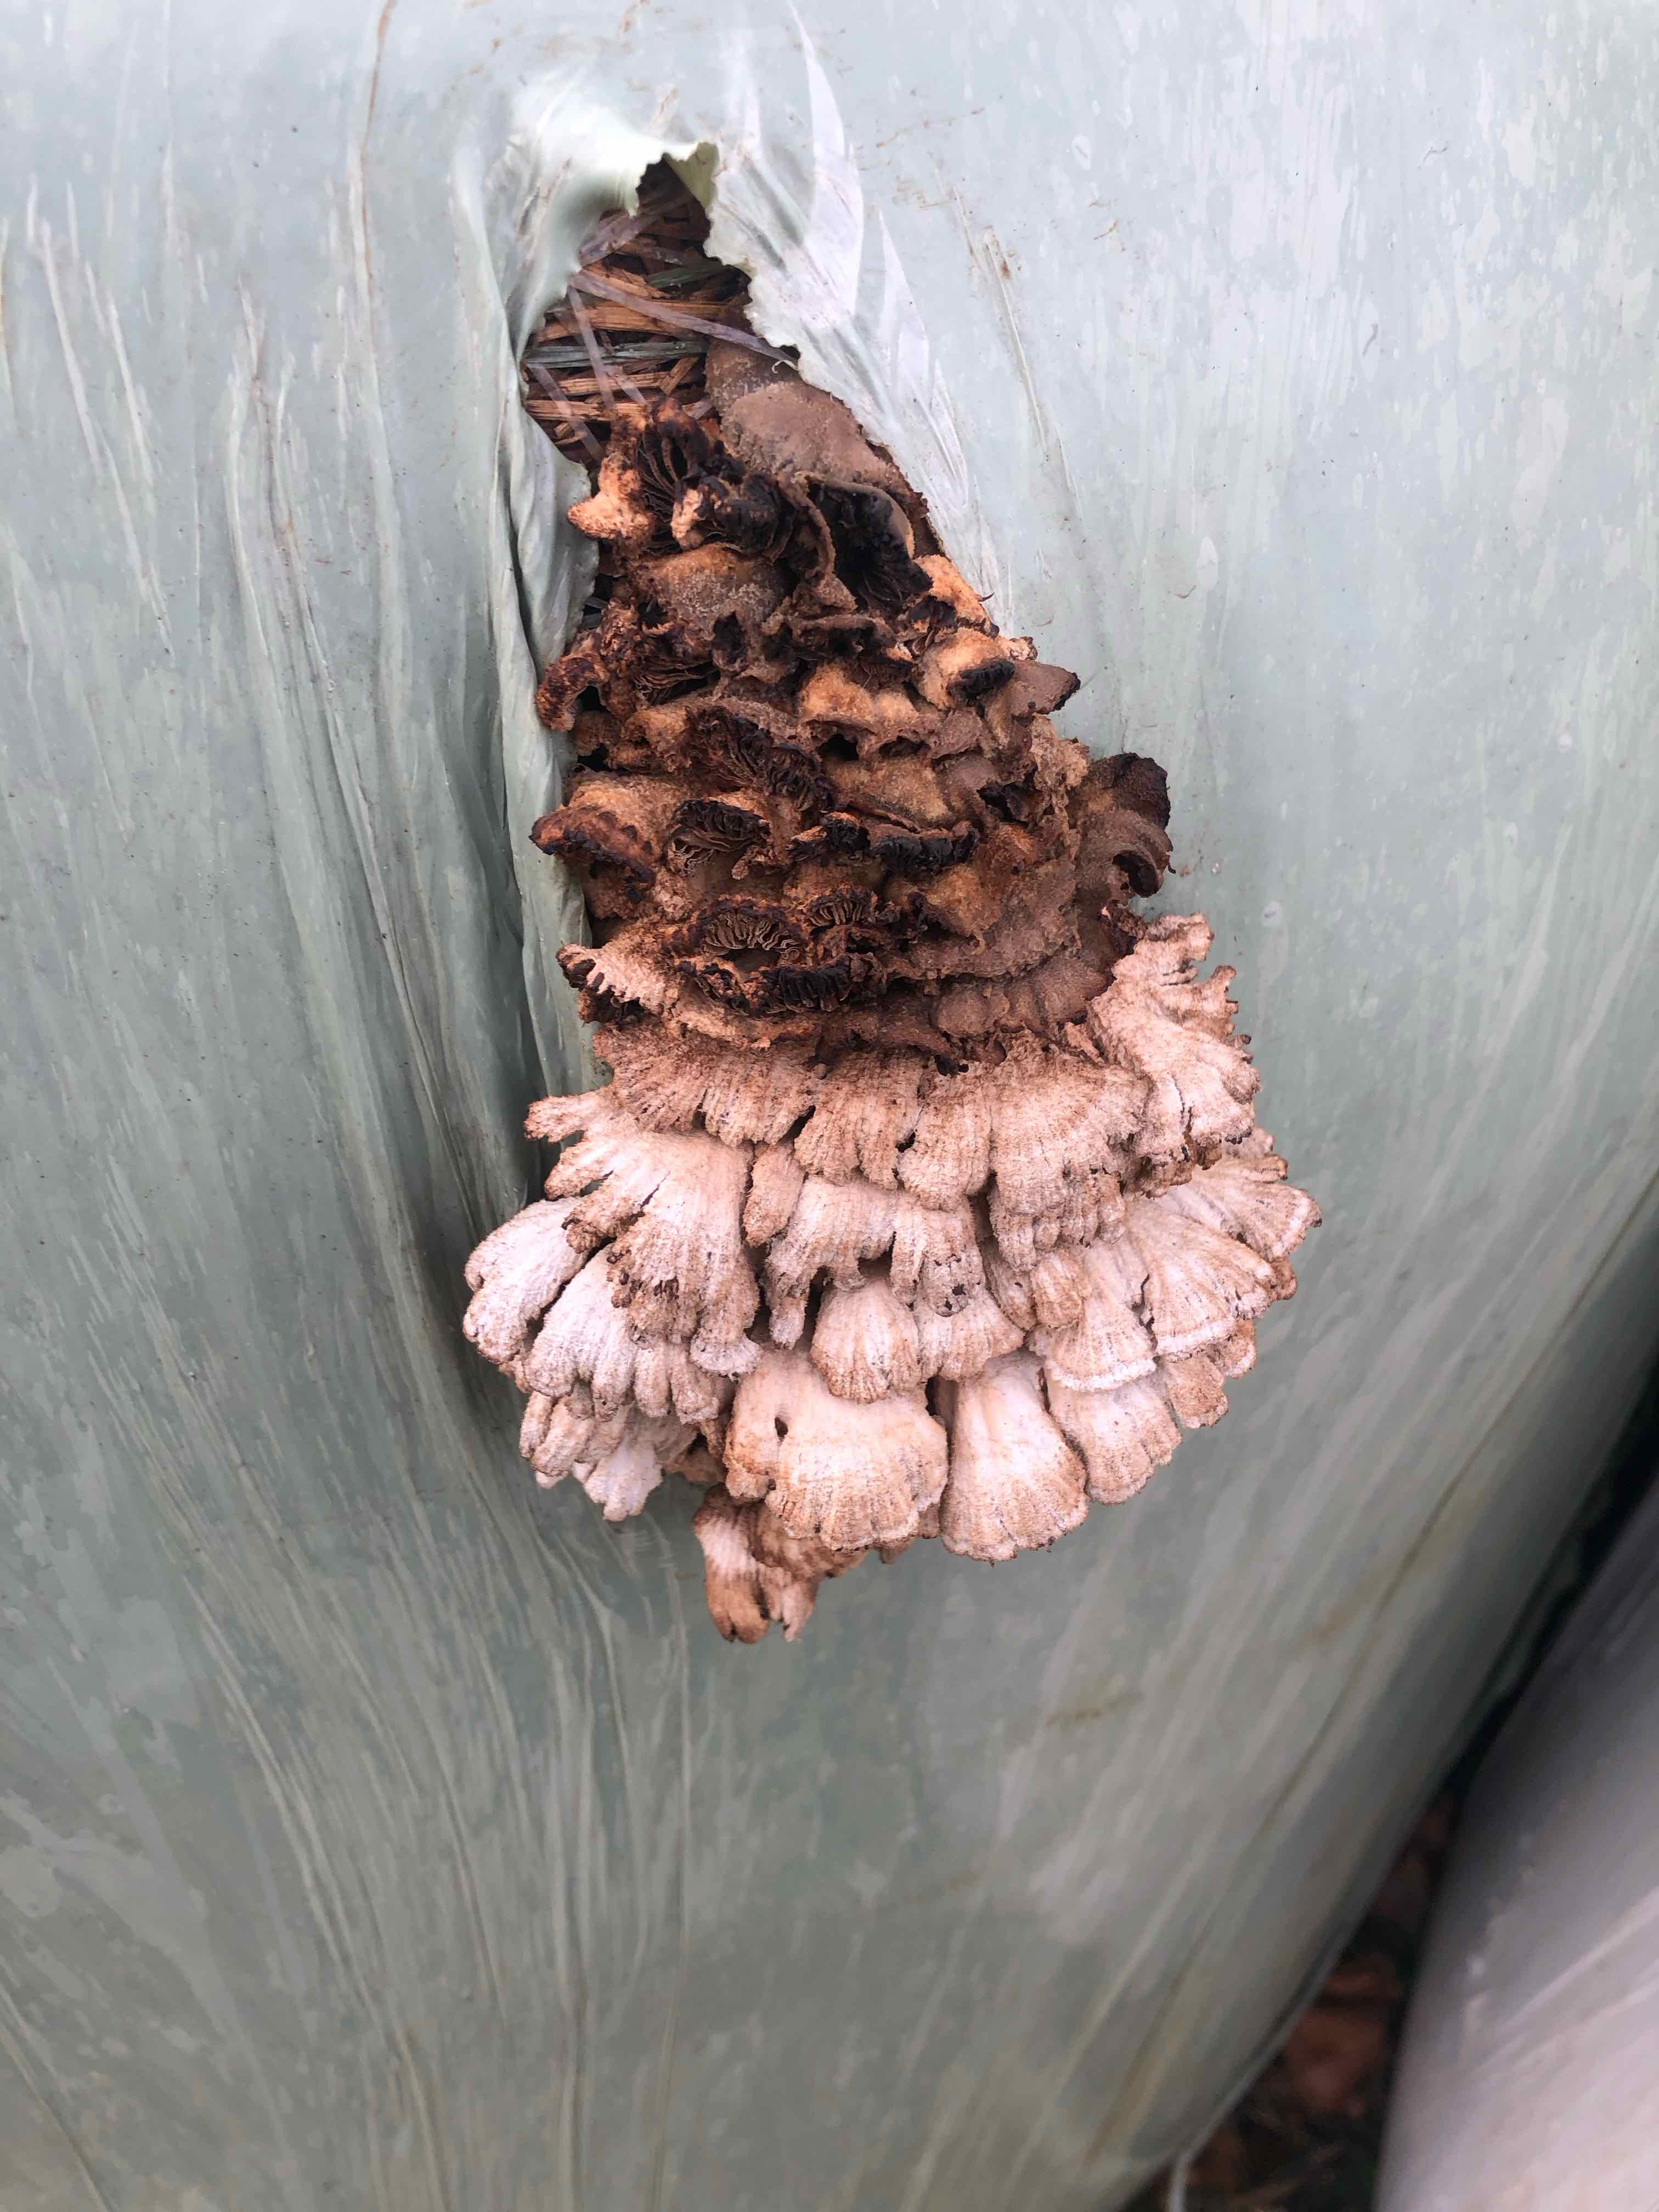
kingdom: Fungi
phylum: Basidiomycota
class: Agaricomycetes
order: Agaricales
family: Schizophyllaceae
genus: Schizophyllum
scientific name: Schizophyllum commune
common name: kløvblad
